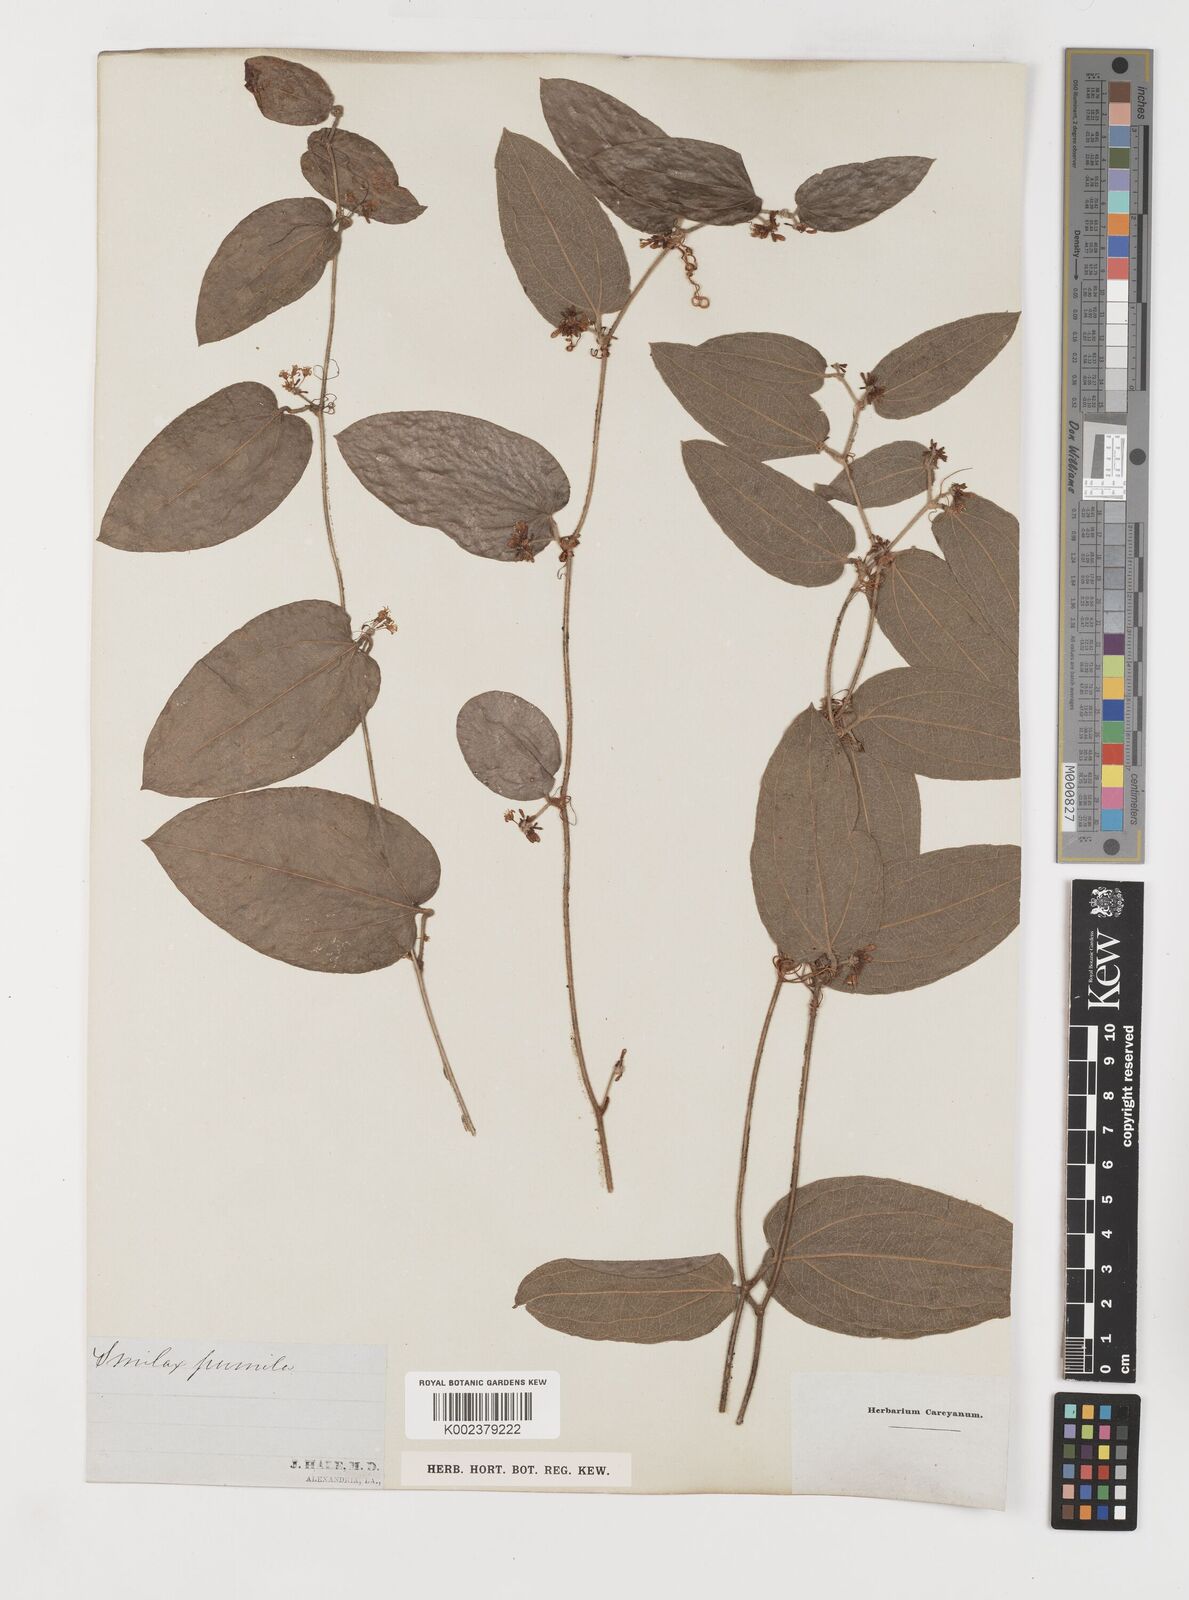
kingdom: Plantae
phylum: Tracheophyta
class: Liliopsida
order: Liliales
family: Smilacaceae
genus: Smilax
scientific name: Smilax pumila
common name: Sarsaparilla-vine
